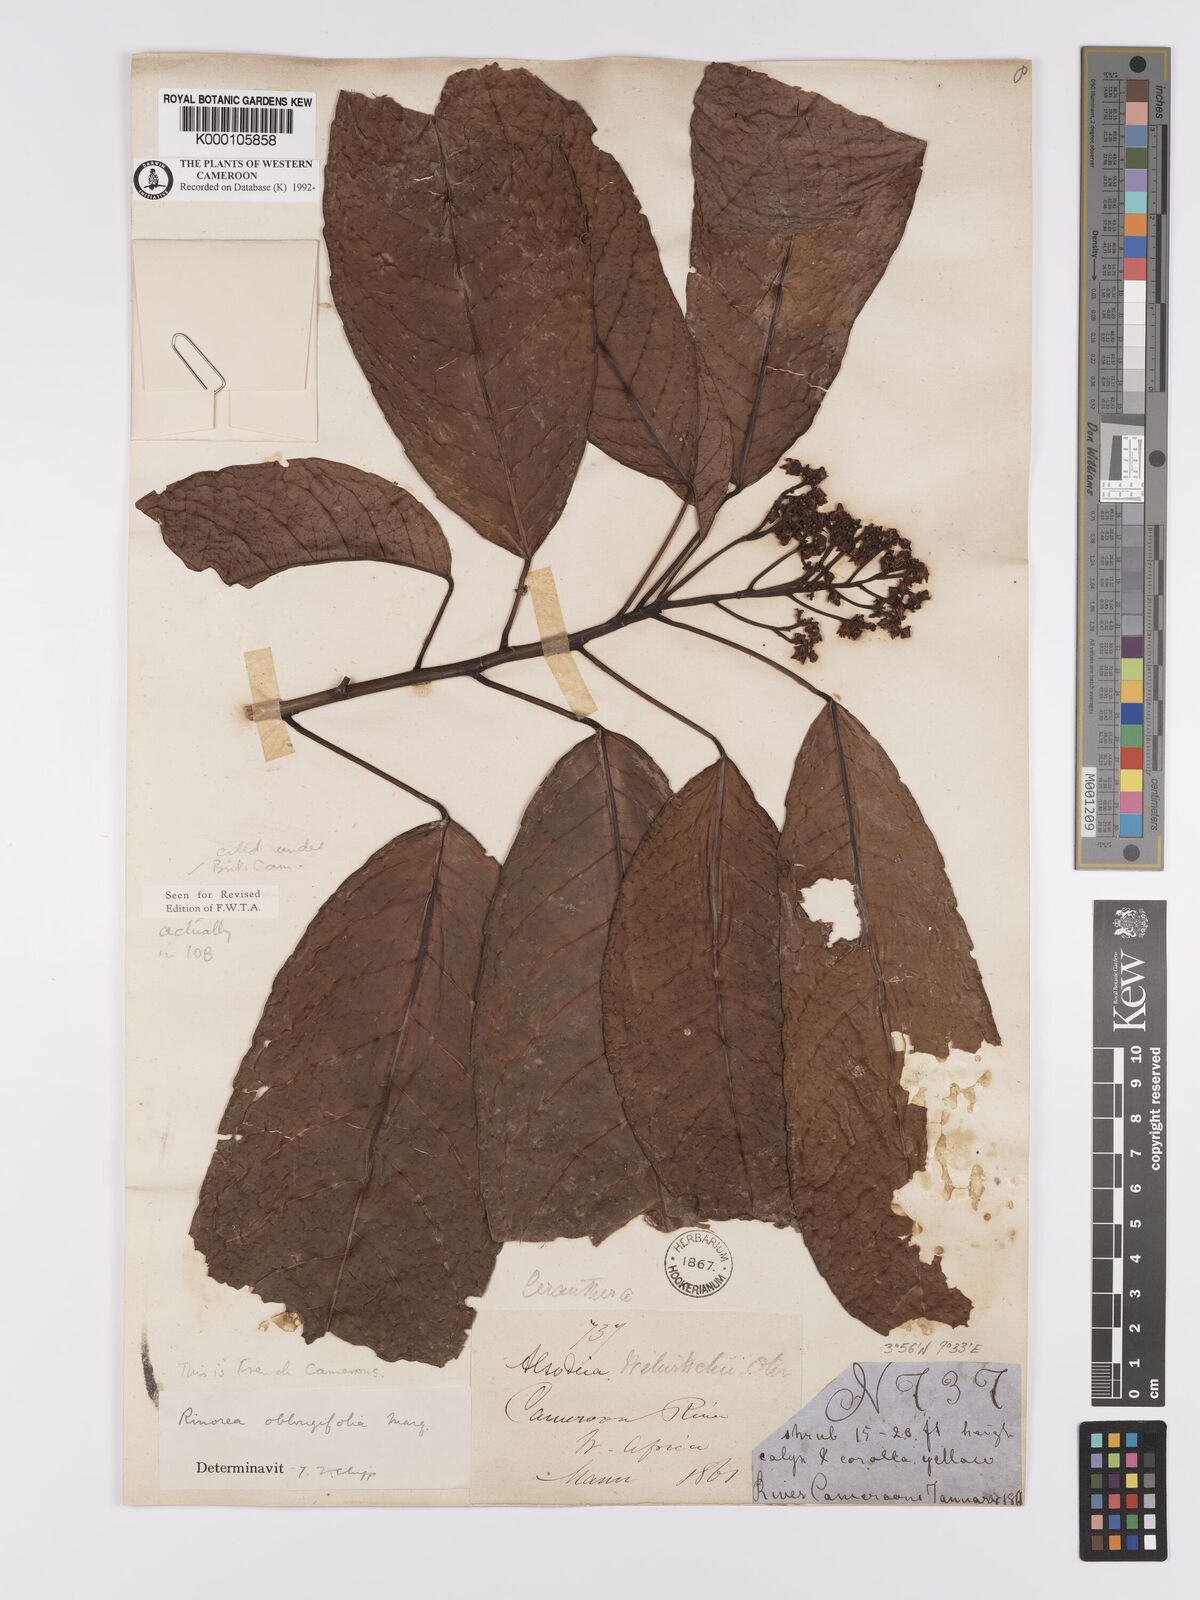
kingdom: Plantae
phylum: Tracheophyta
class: Magnoliopsida
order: Apiales
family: Pittosporaceae
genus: Marianthus
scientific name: Marianthus coeruleopunctatus
